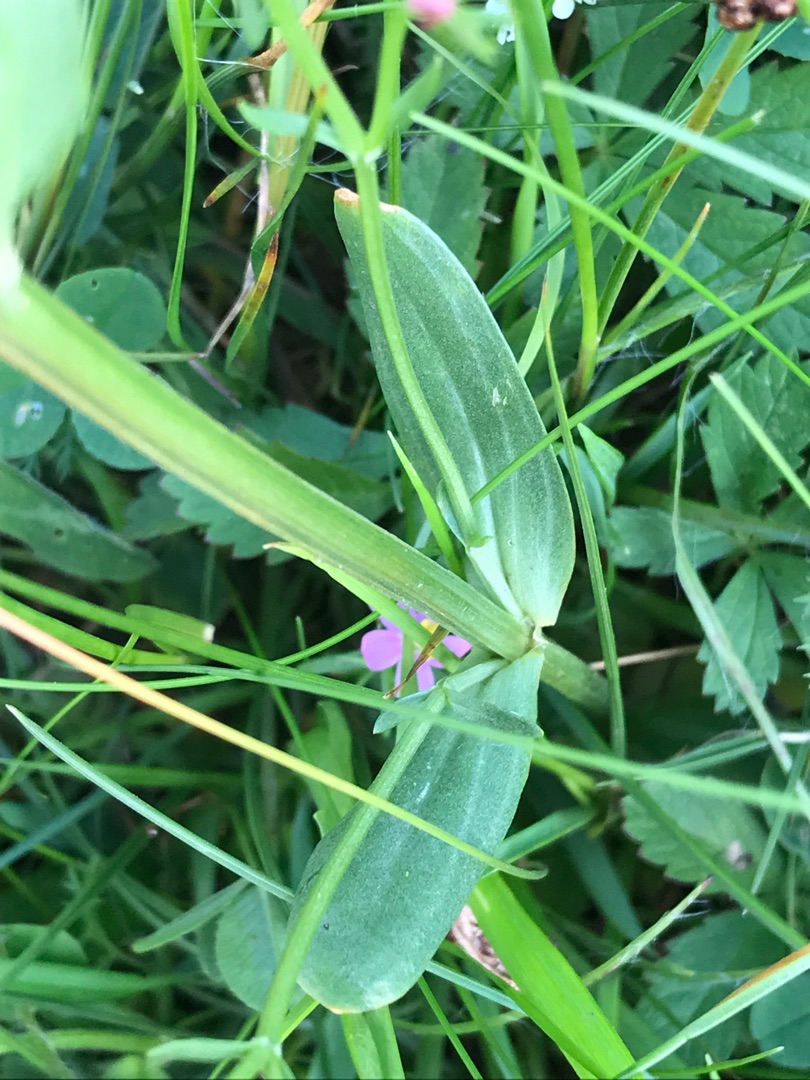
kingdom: Plantae
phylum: Tracheophyta
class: Magnoliopsida
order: Gentianales
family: Gentianaceae
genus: Centaurium
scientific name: Centaurium erythraea
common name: Mark-tusindgylden
